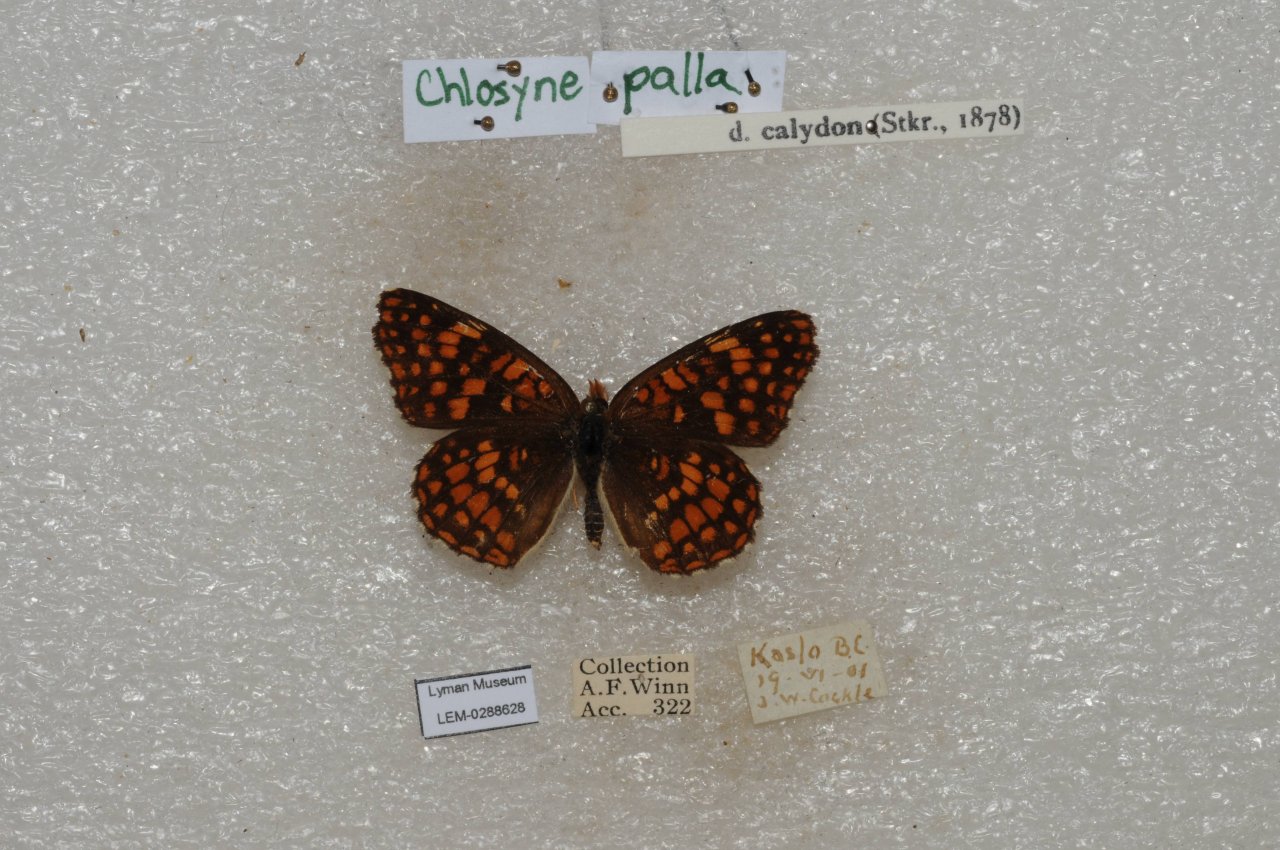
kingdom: Animalia
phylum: Arthropoda
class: Insecta
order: Lepidoptera
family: Nymphalidae
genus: Chlosyne
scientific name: Chlosyne palla
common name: Northern Checkerspot
